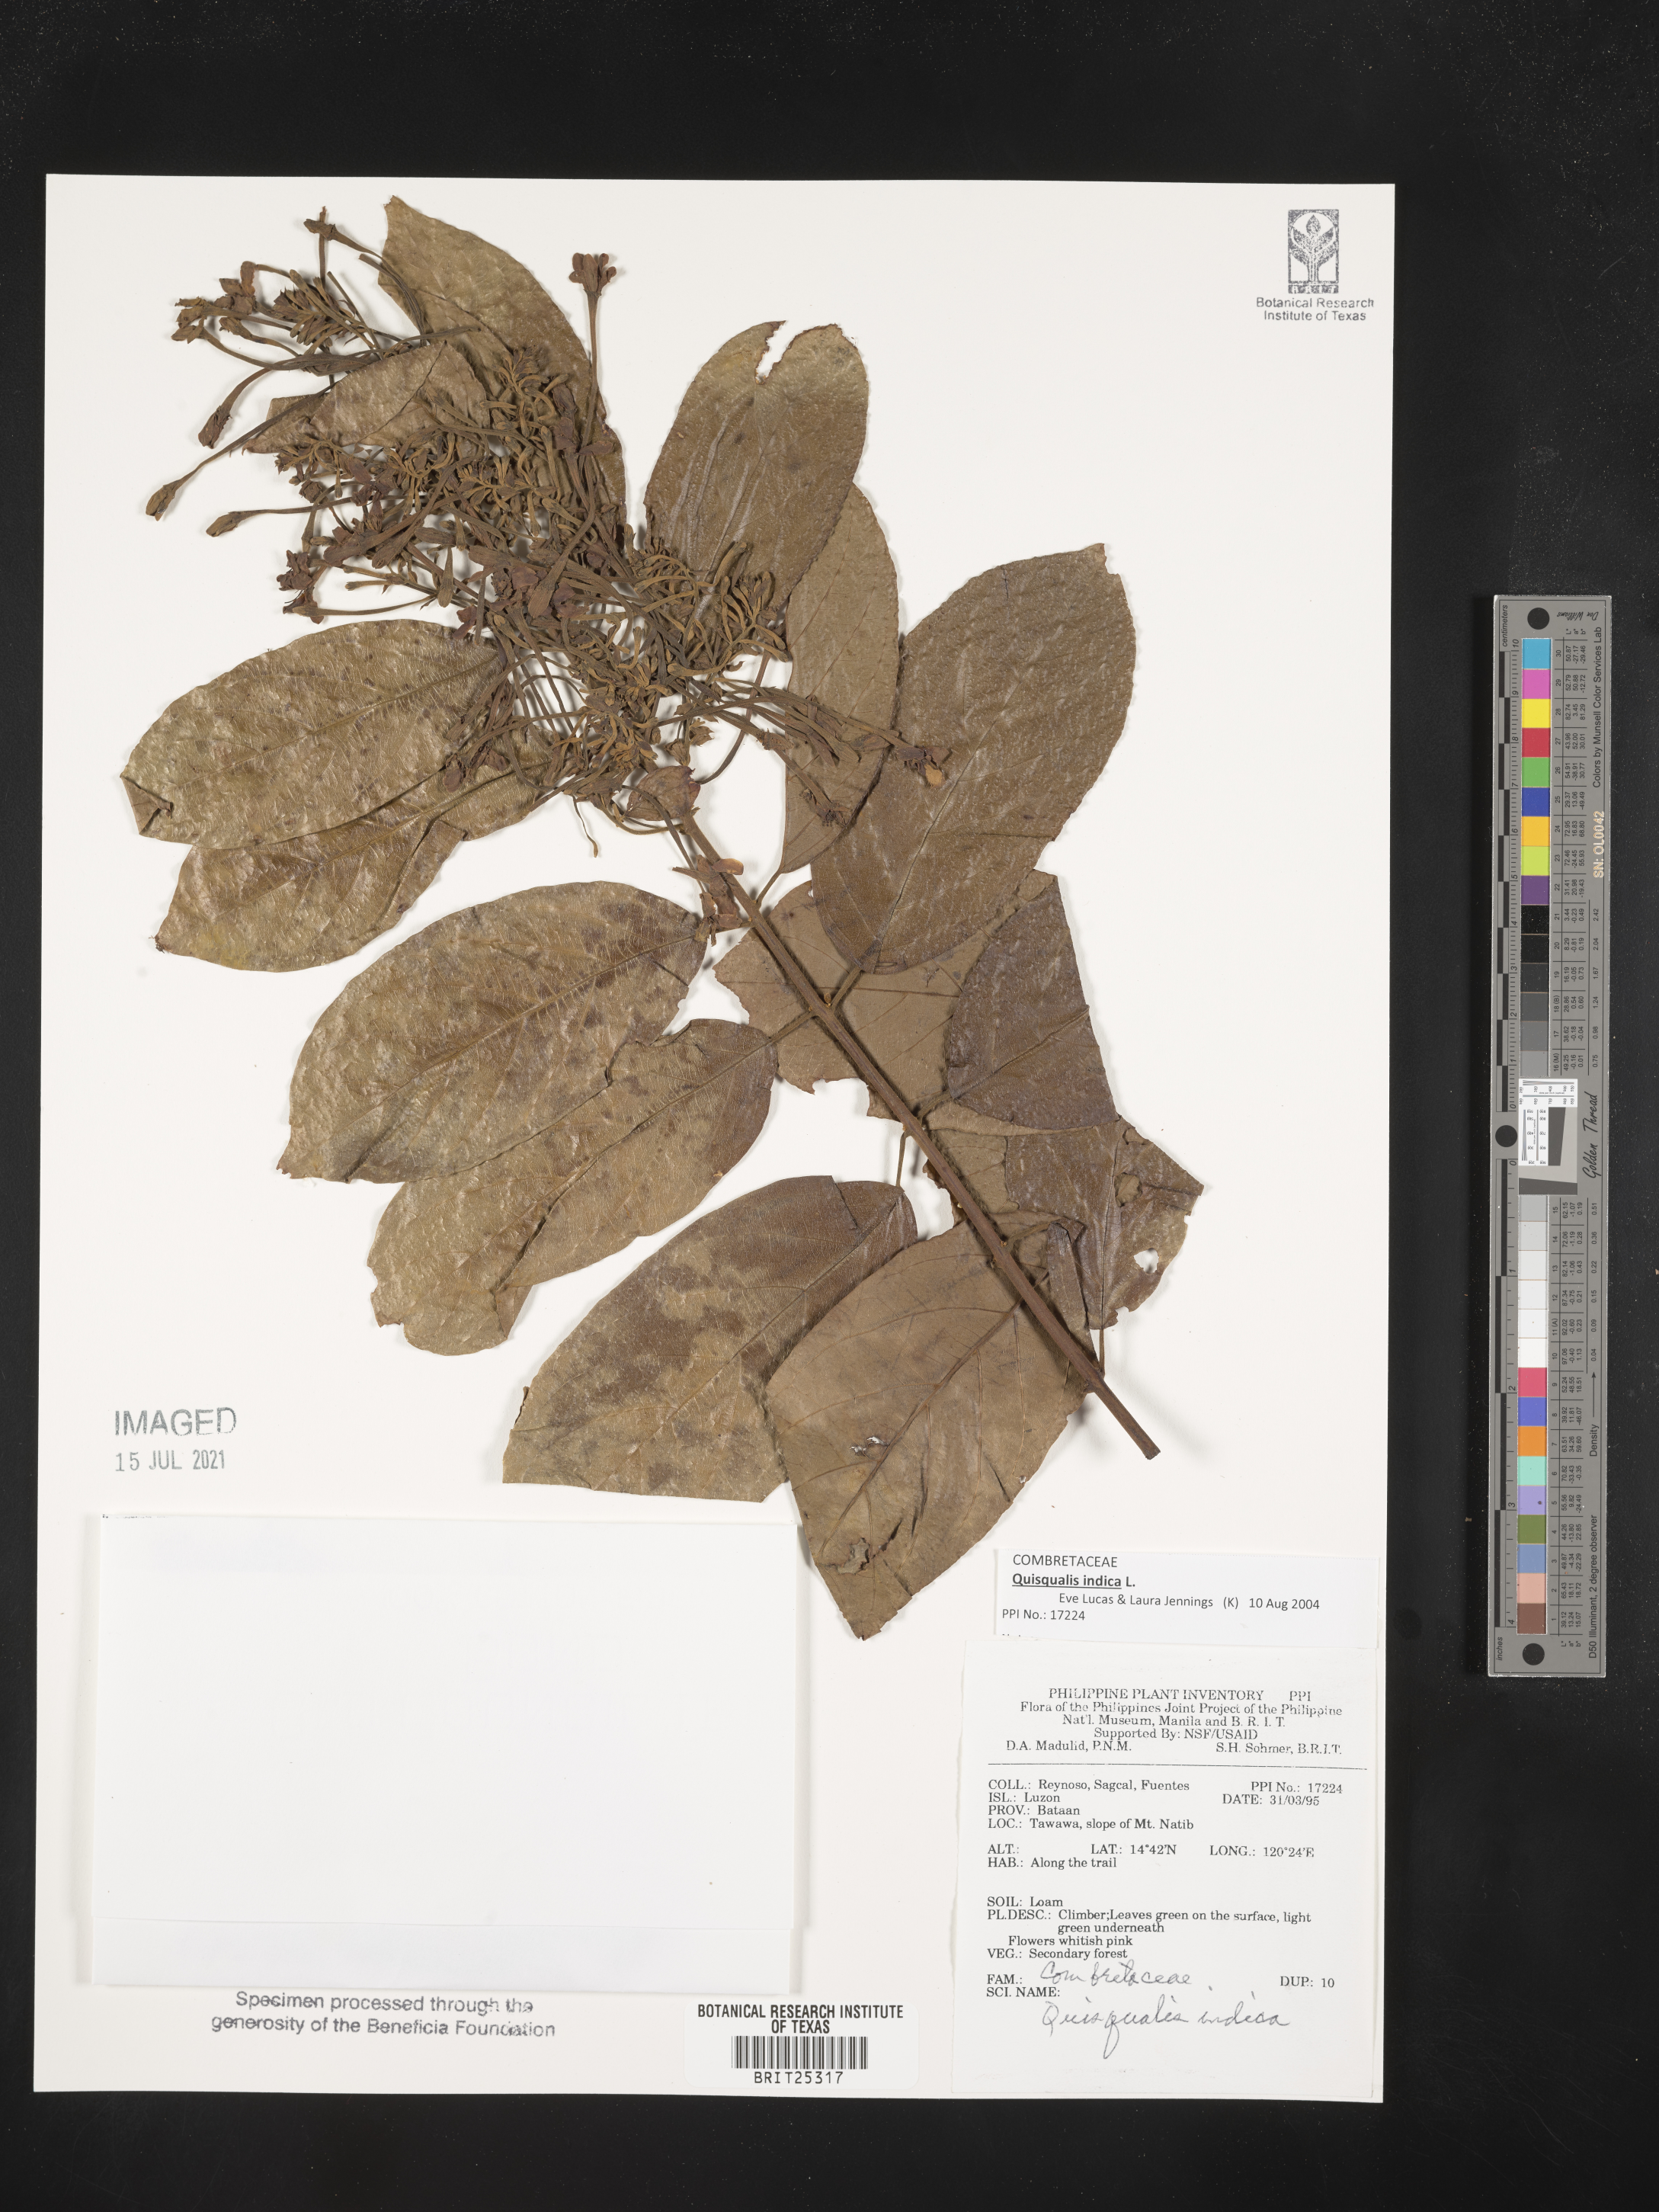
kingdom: Plantae
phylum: Tracheophyta
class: Magnoliopsida
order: Myrtales
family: Combretaceae
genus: Combretum
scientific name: Combretum indicum
